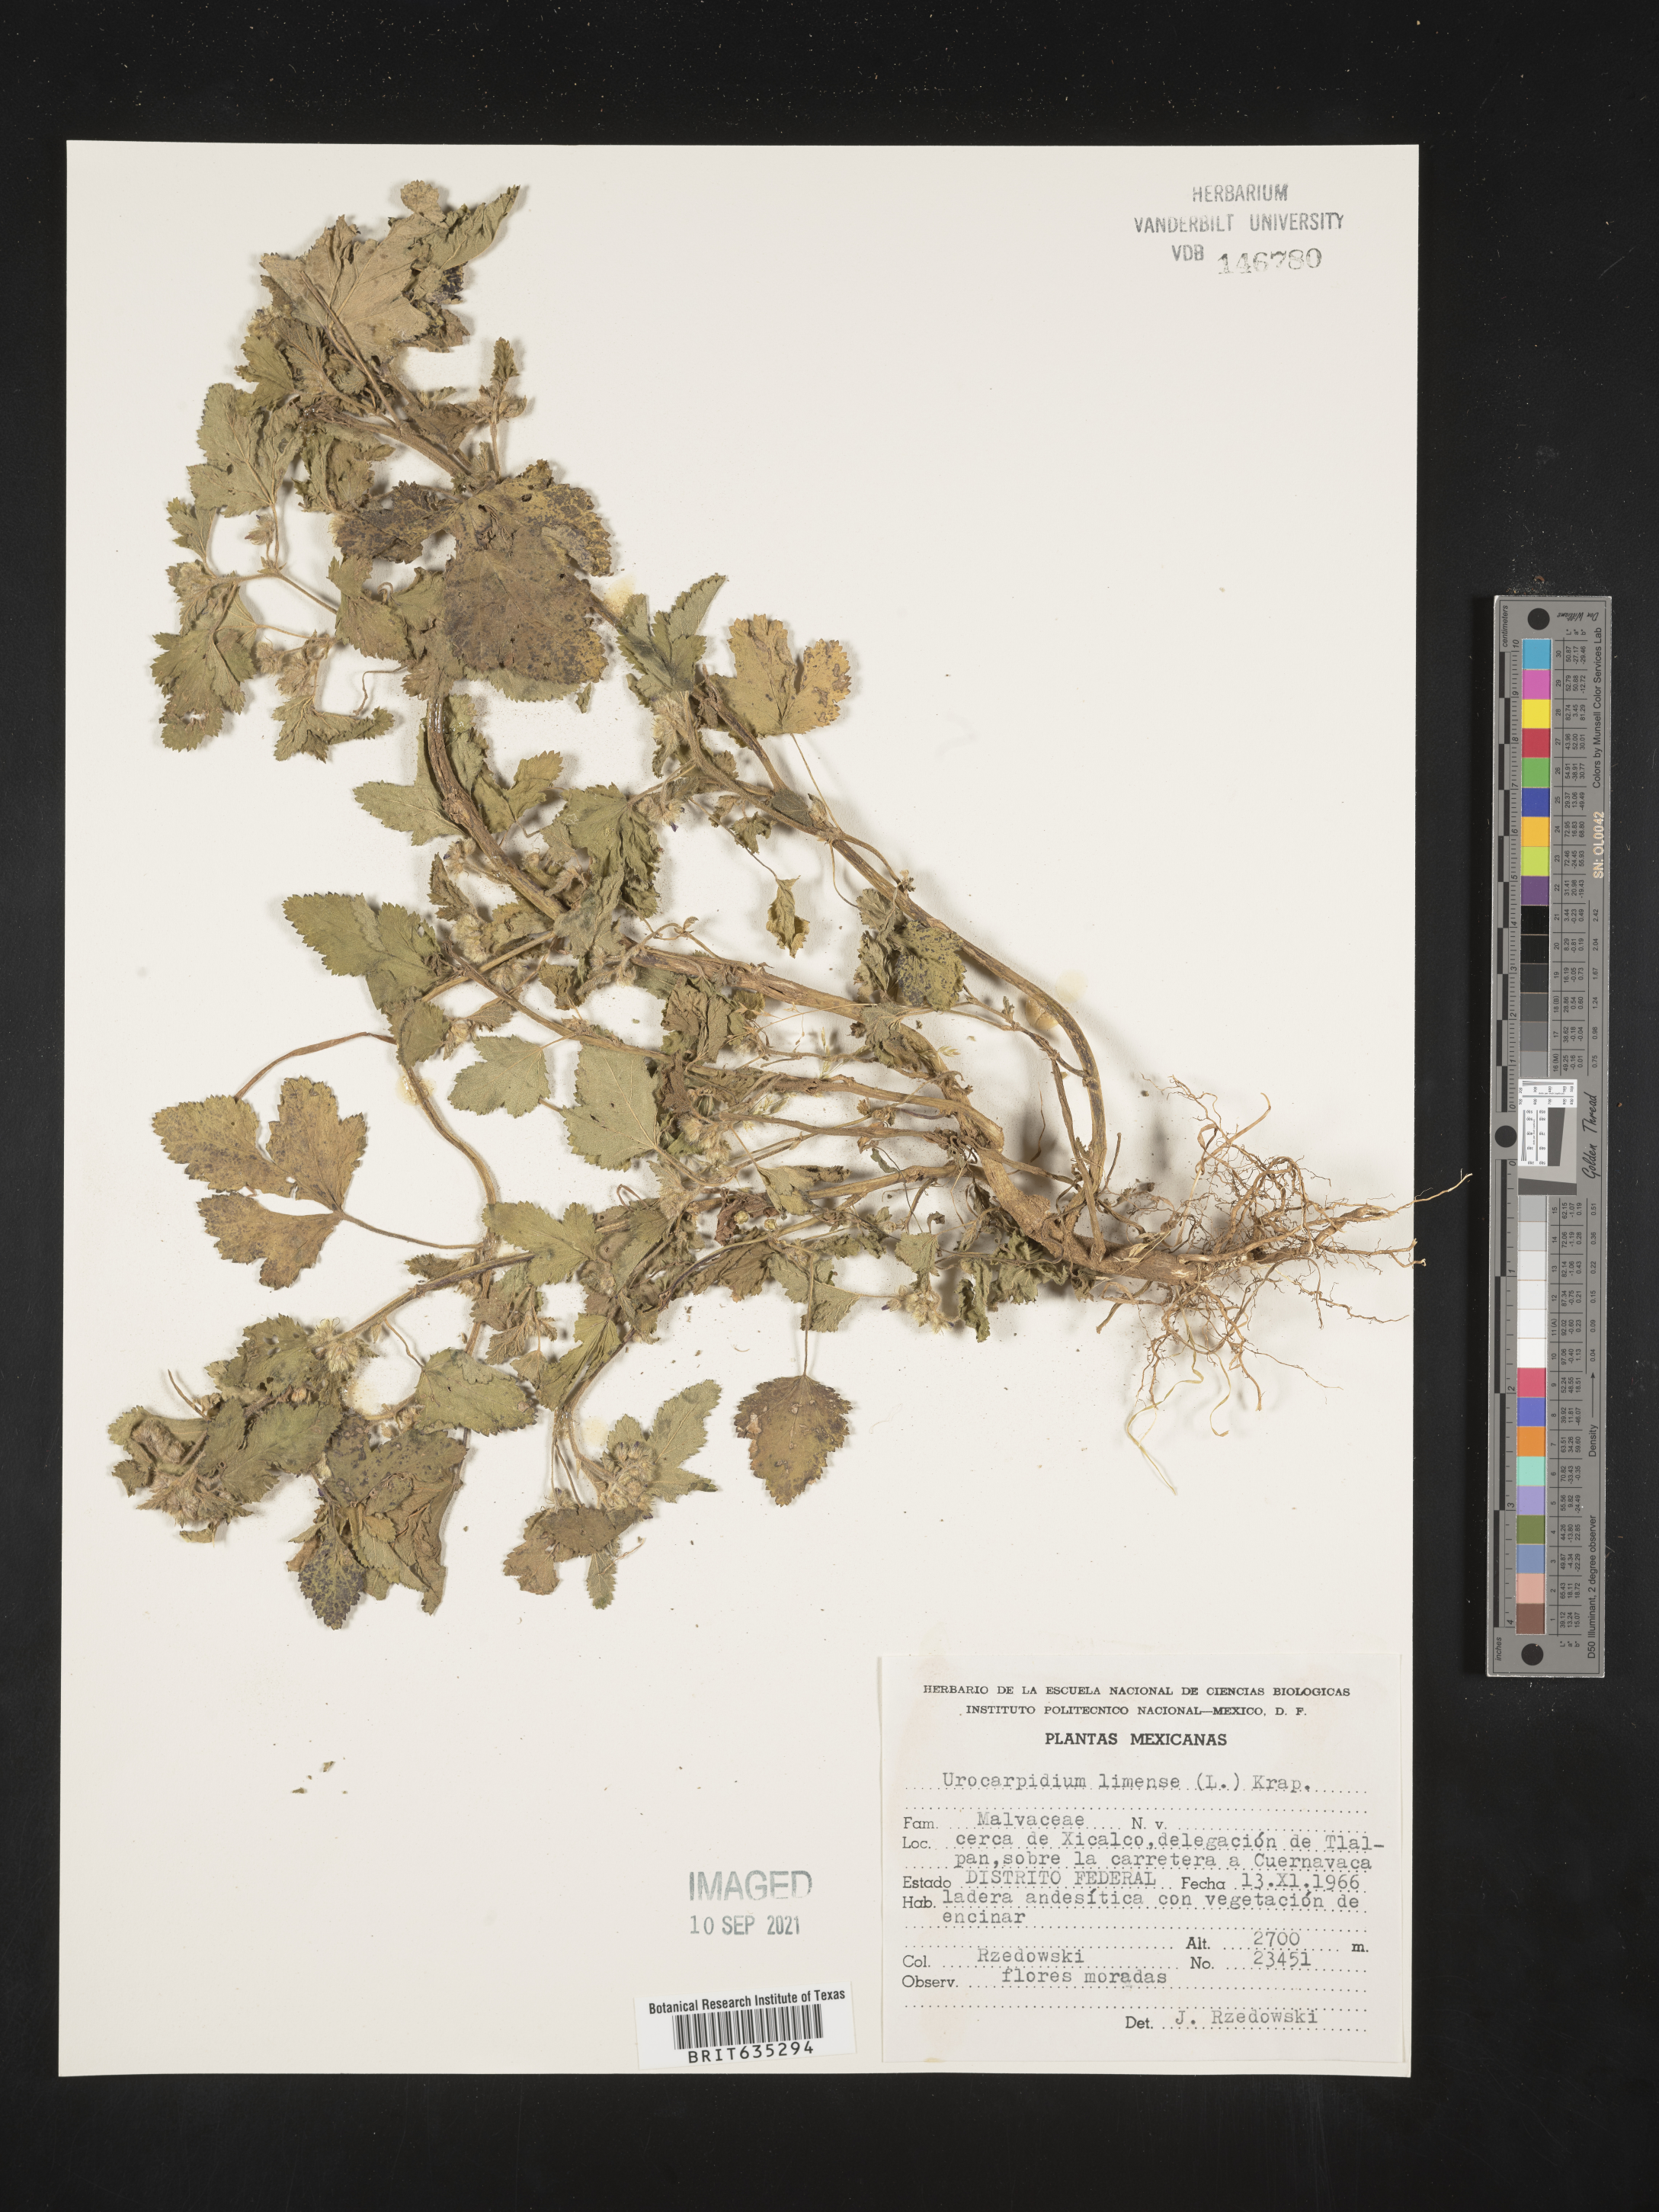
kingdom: Plantae
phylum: Tracheophyta
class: Magnoliopsida
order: Malvales
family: Malvaceae
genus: Urocarpidium
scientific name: Urocarpidium
